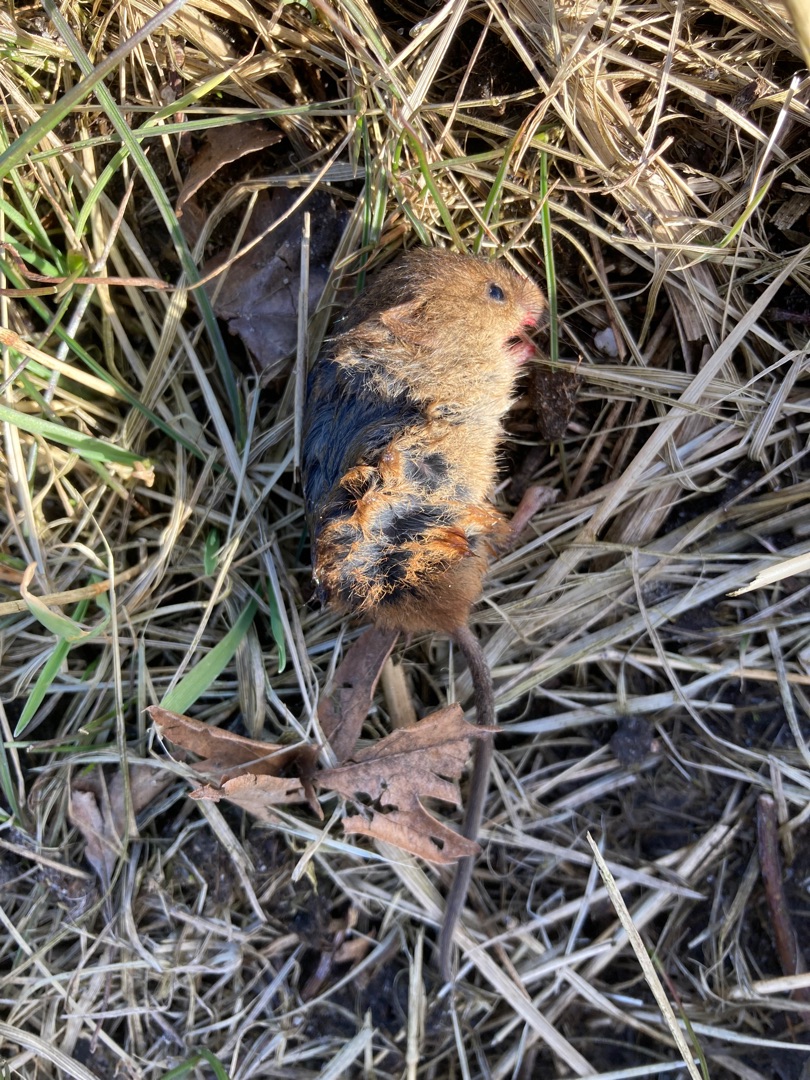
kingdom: Animalia
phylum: Chordata
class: Mammalia
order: Rodentia
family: Cricetidae
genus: Myodes
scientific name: Myodes glareolus
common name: Rødmus
